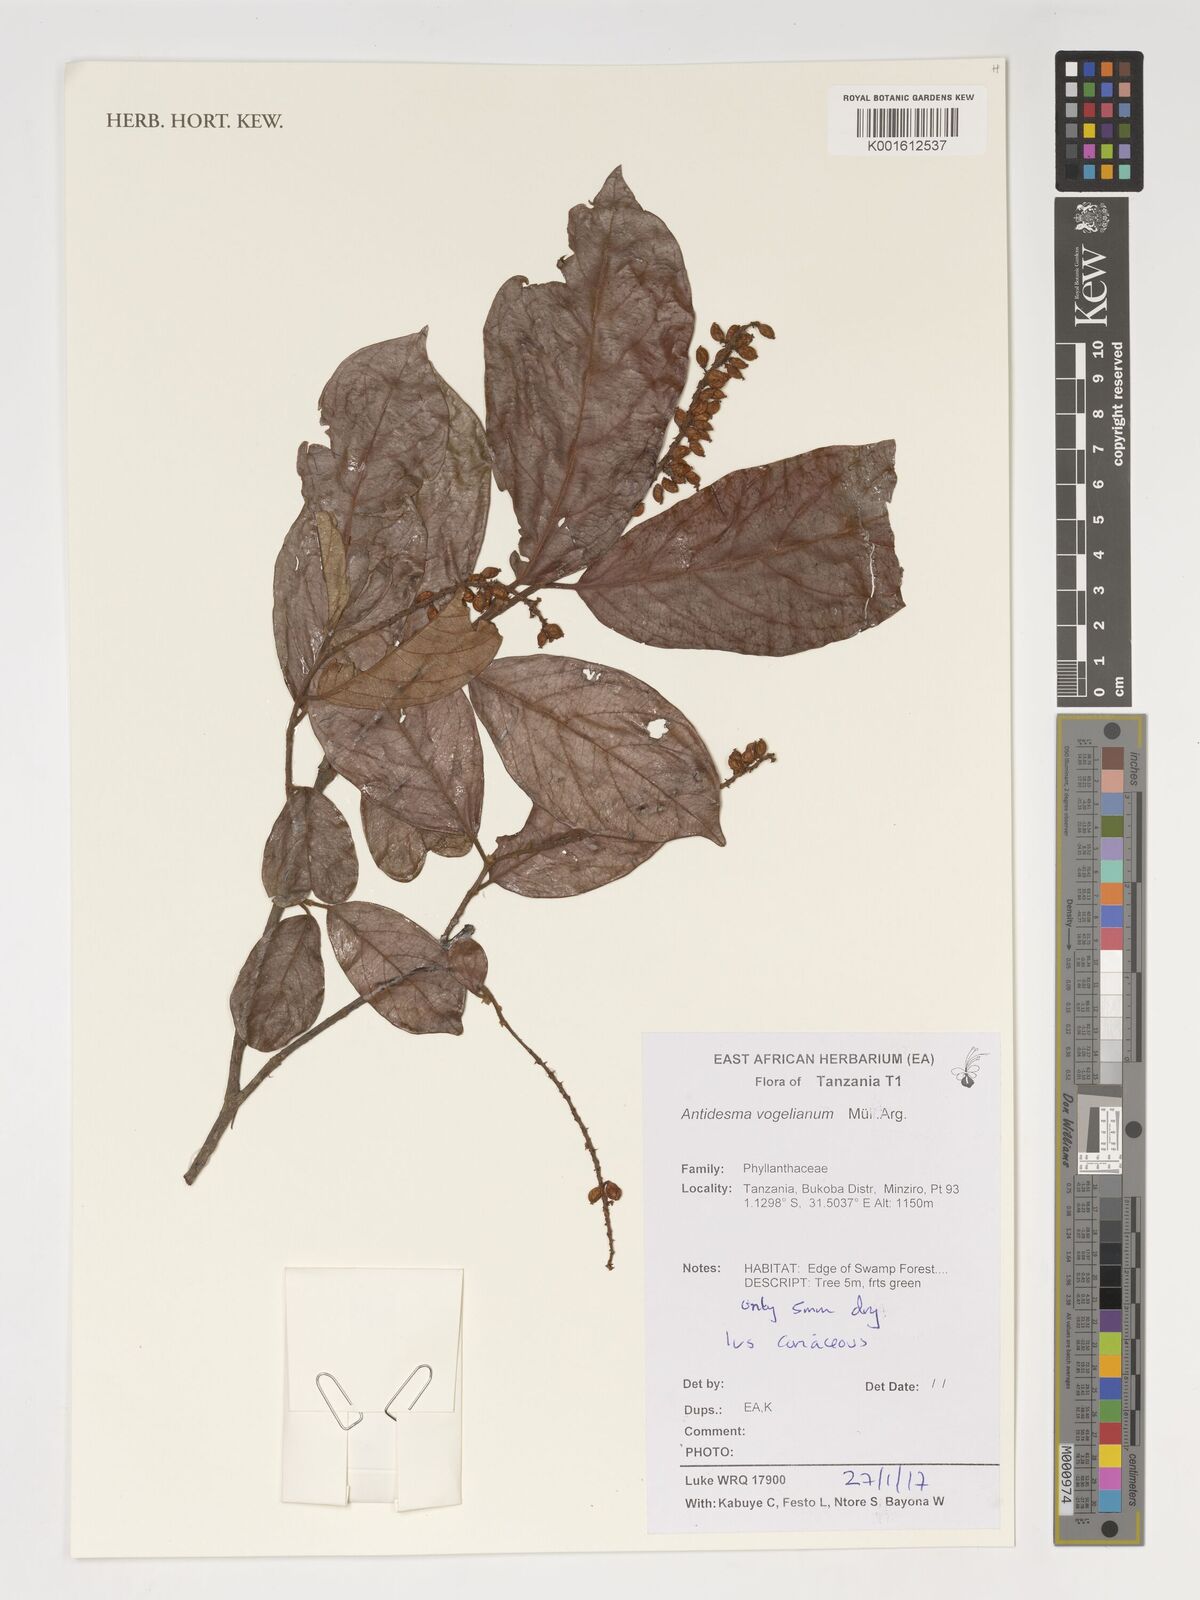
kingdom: Plantae
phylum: Tracheophyta
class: Magnoliopsida
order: Malpighiales
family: Phyllanthaceae
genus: Antidesma
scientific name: Antidesma vogelianum
